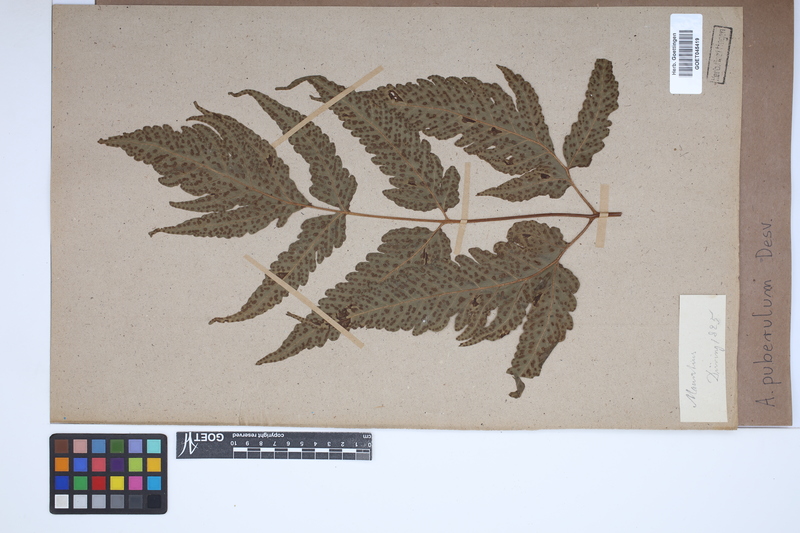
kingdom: Plantae
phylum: Tracheophyta
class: Polypodiopsida
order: Polypodiales
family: Tectariaceae
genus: Tectaria
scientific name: Tectaria puberula
